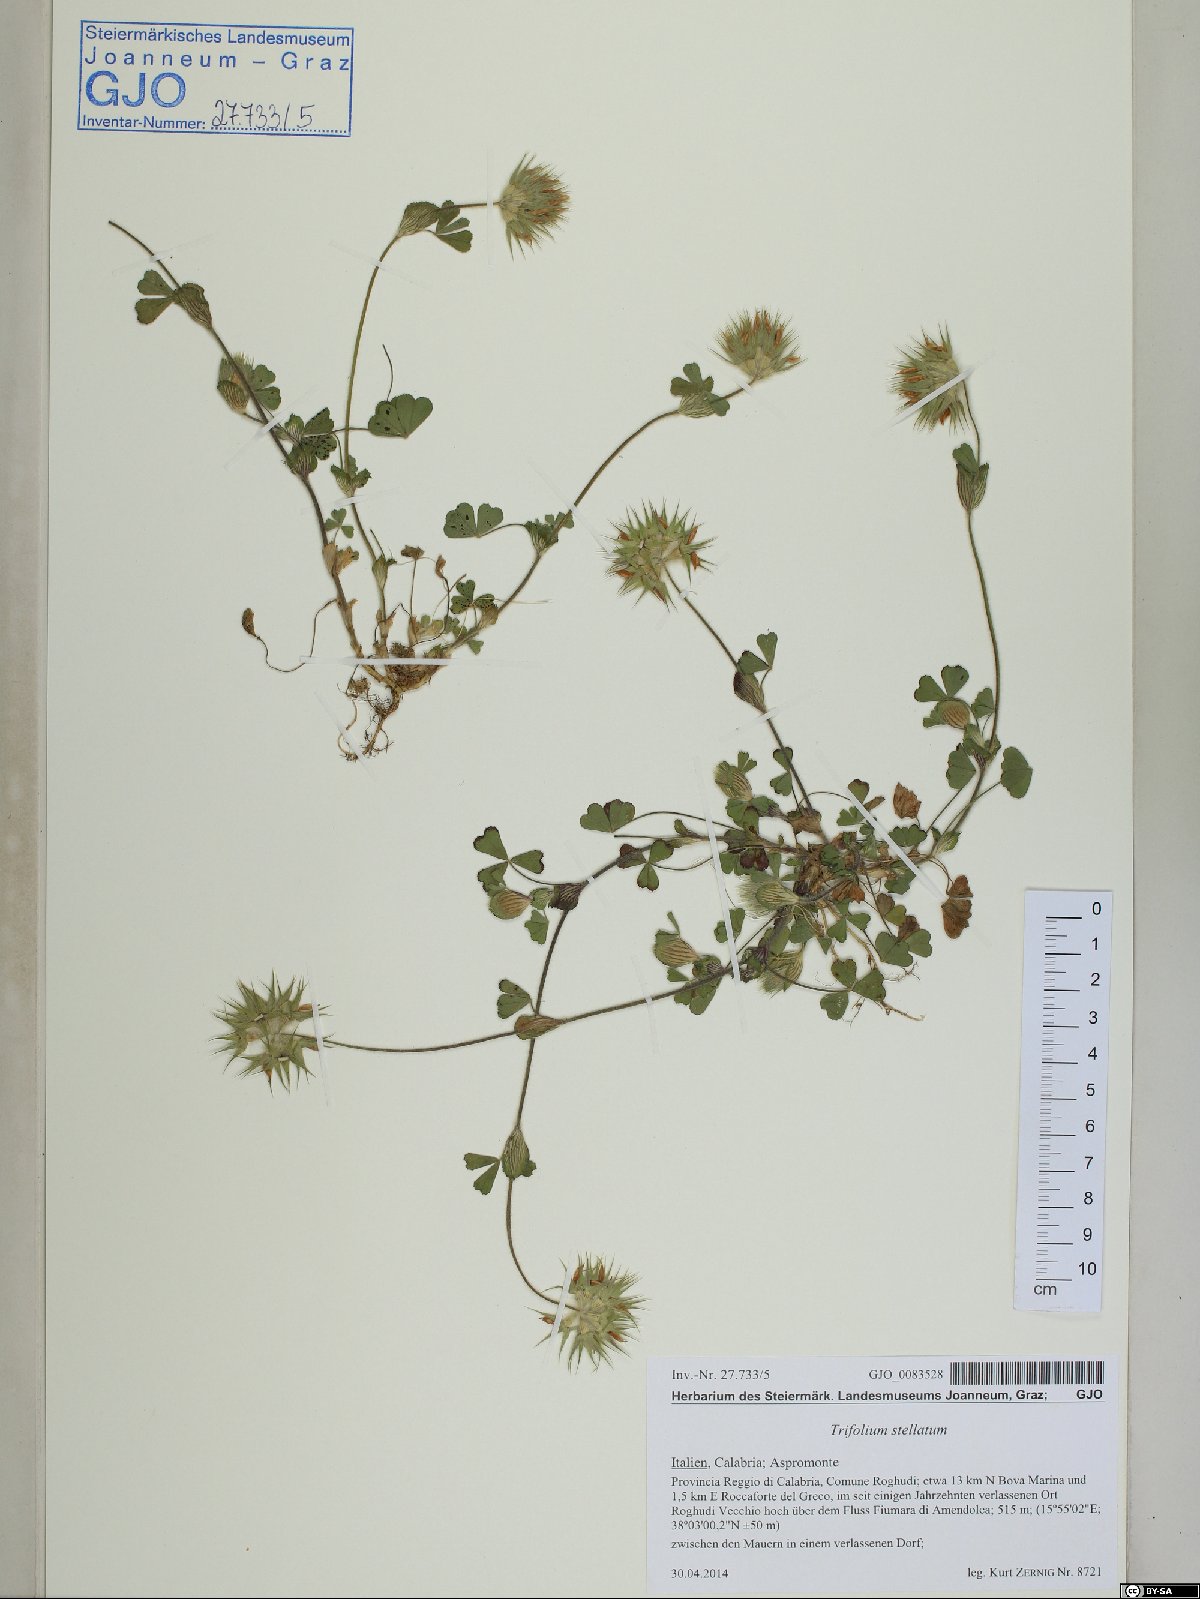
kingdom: Plantae
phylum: Tracheophyta
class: Magnoliopsida
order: Fabales
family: Fabaceae
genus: Trifolium
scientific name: Trifolium stellatum
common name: Starry clover
